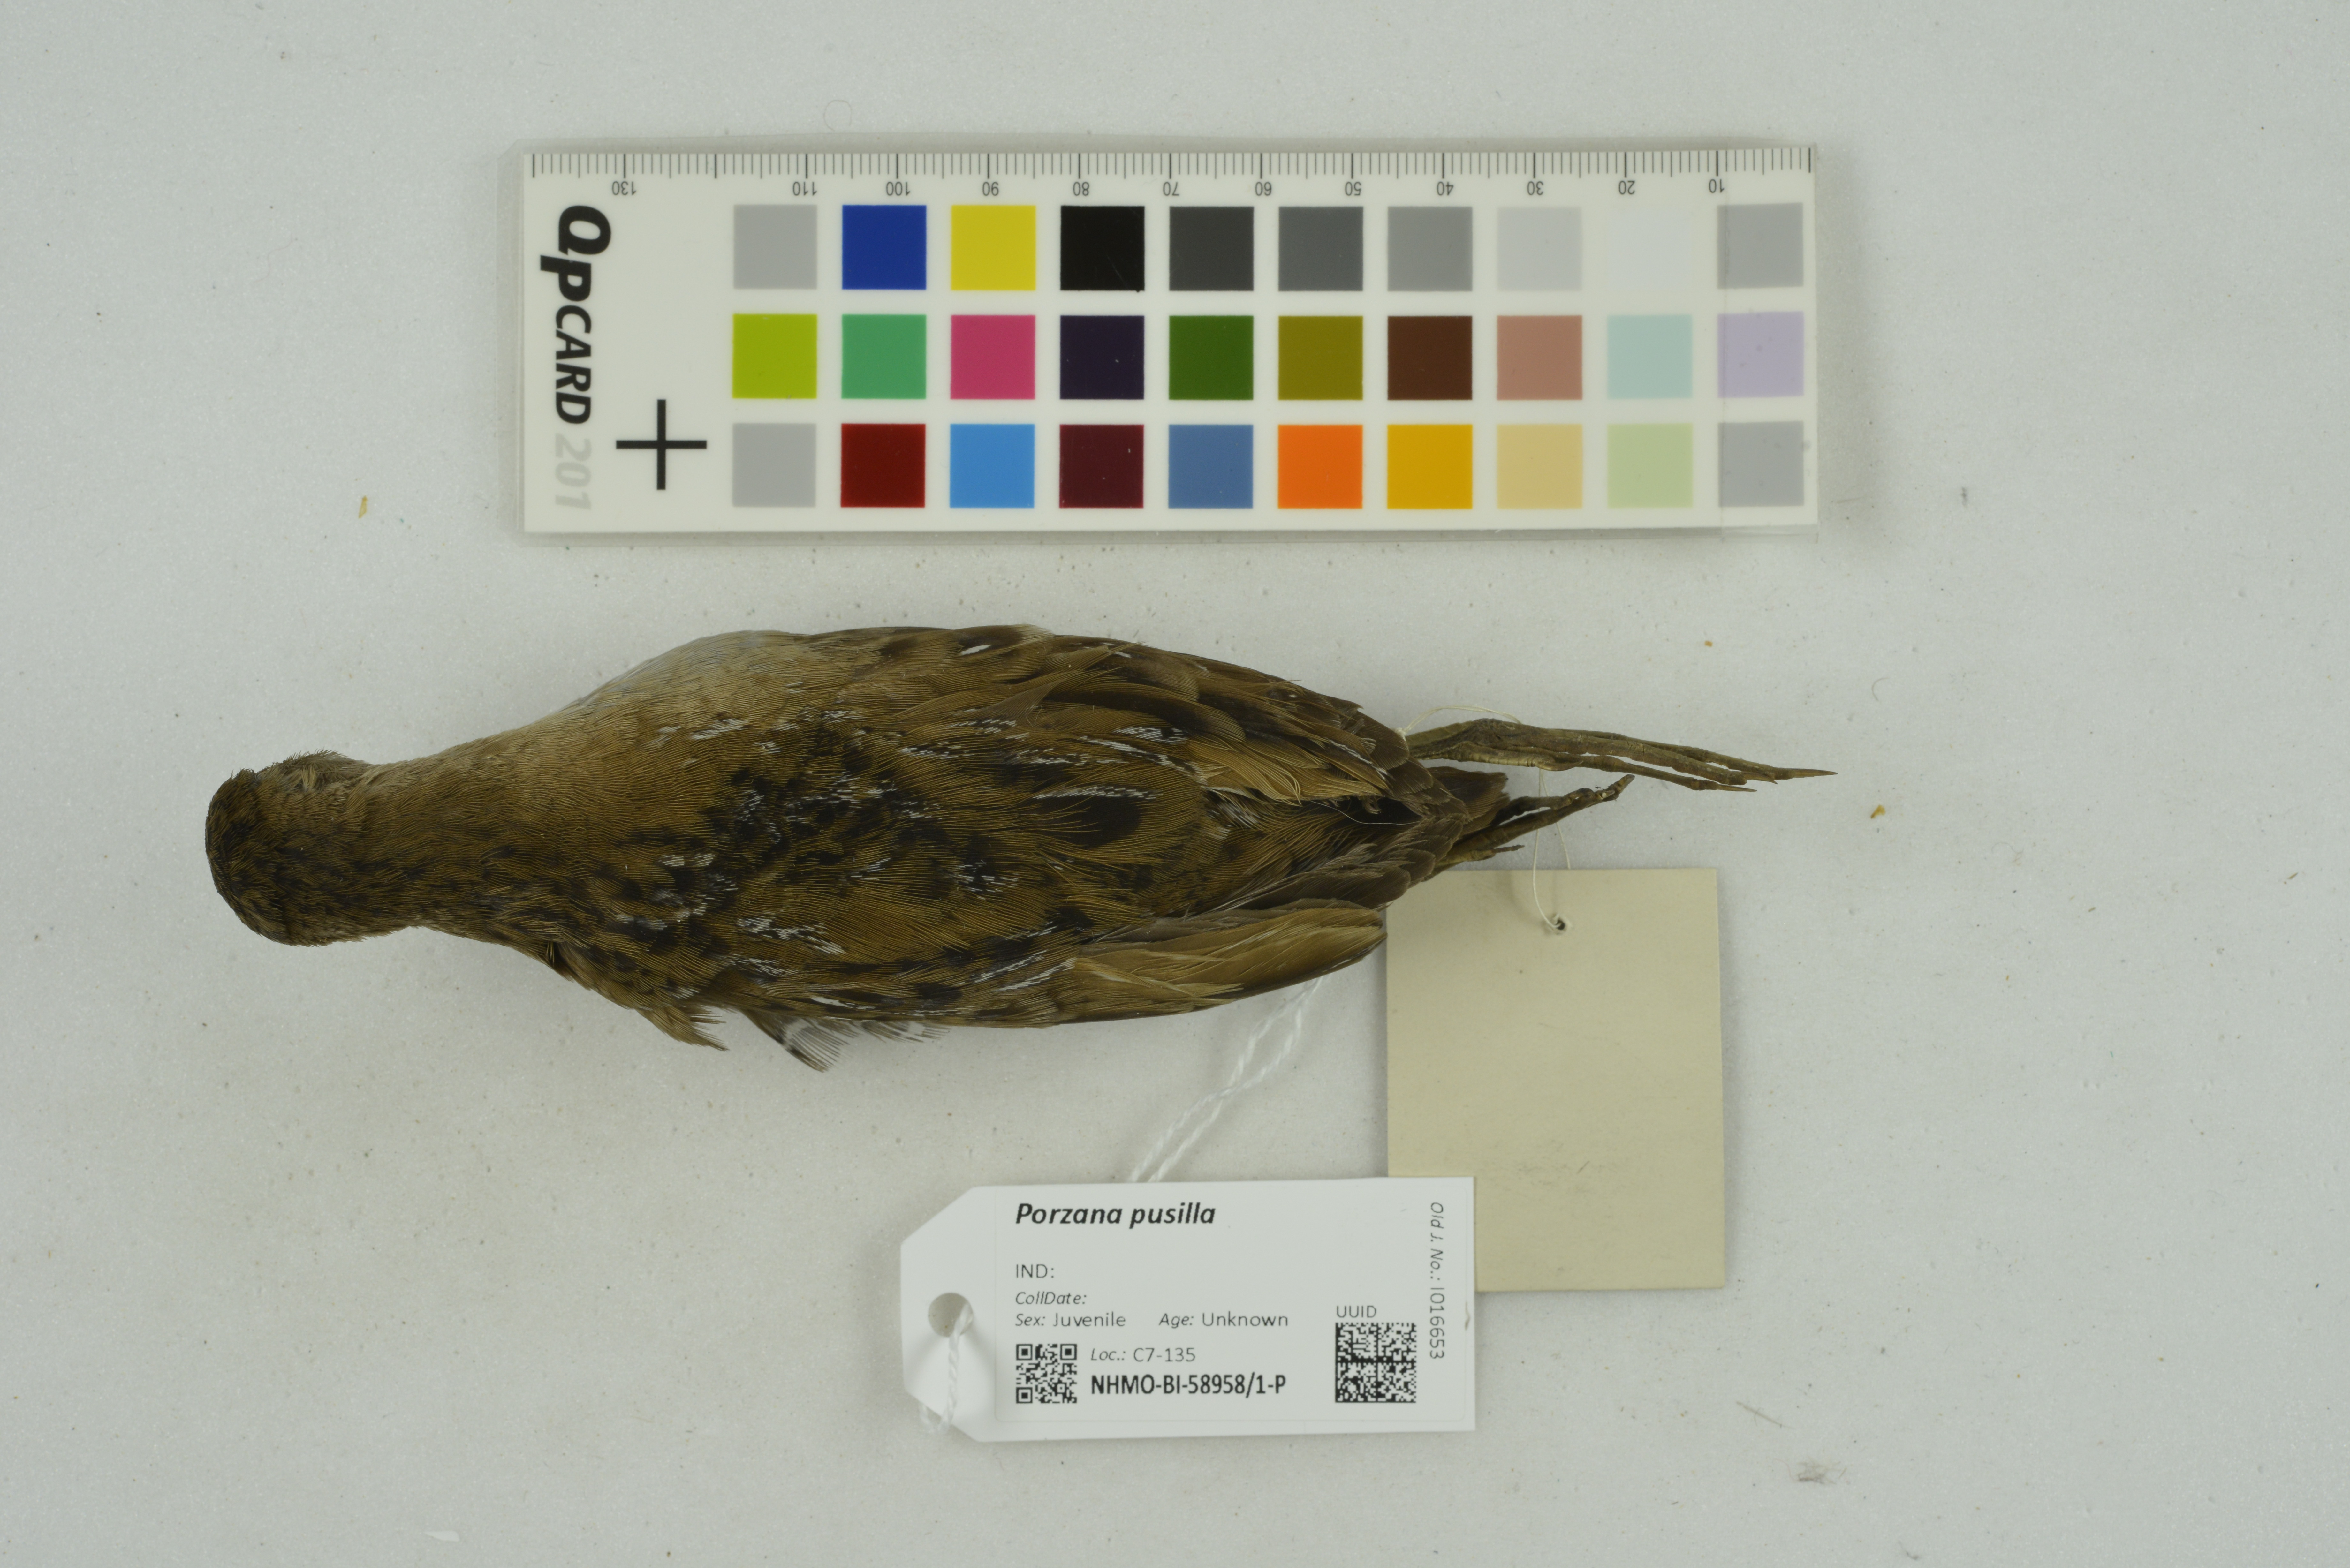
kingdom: Animalia
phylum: Chordata
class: Aves
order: Gruiformes
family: Rallidae
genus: Porzana
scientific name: Porzana pusilla
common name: Baillon's crake
